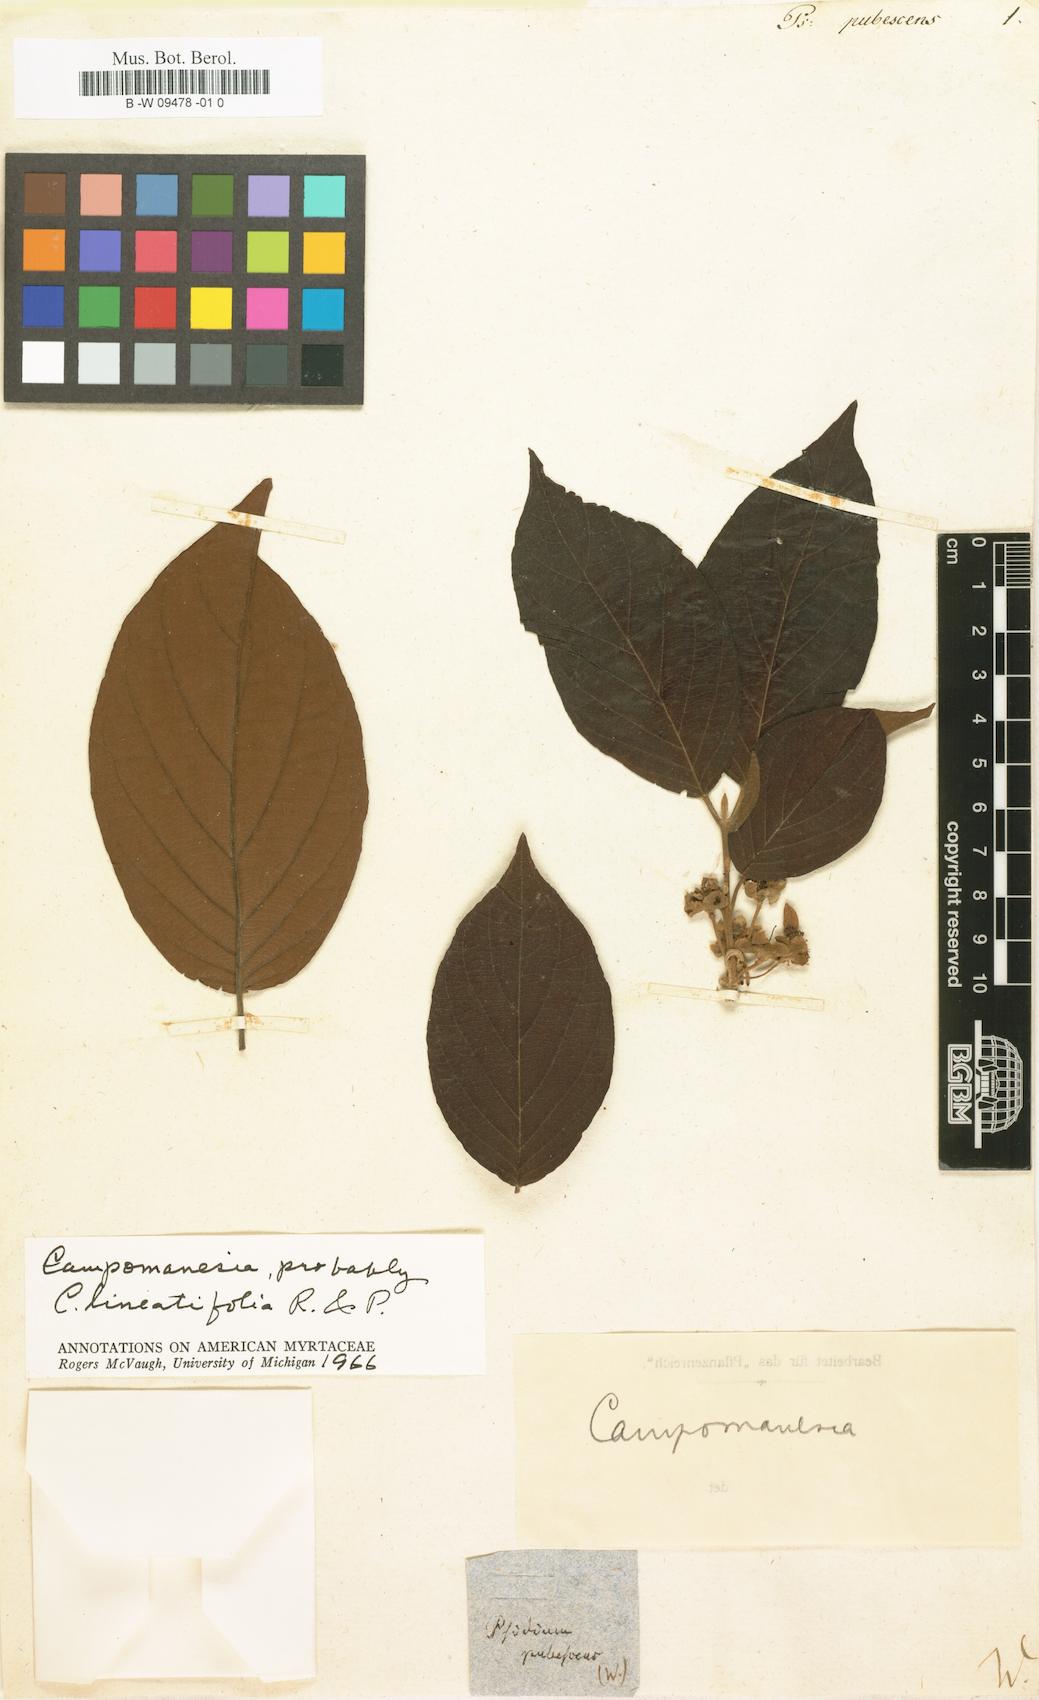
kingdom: Plantae
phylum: Tracheophyta
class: Magnoliopsida
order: Myrtales
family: Myrtaceae
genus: Campomanesia
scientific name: Campomanesia pubescens
